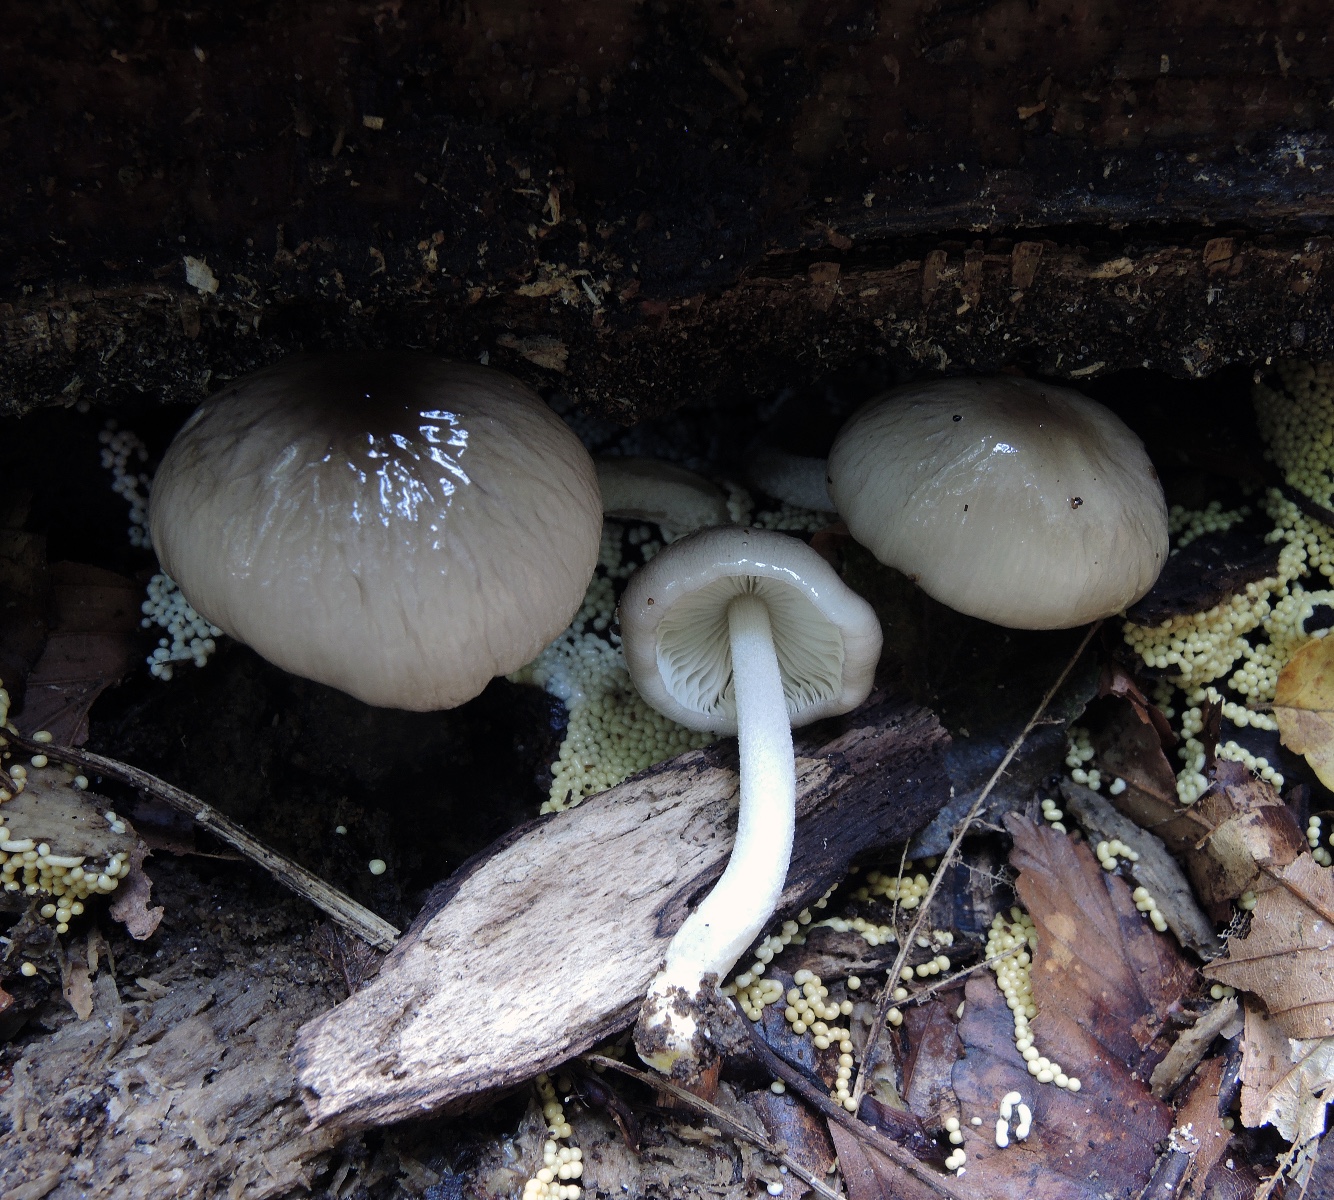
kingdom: Fungi
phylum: Basidiomycota
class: Agaricomycetes
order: Agaricales
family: Bolbitiaceae
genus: Bolbitius
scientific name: Bolbitius reticulatus
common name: netåret gulhat
